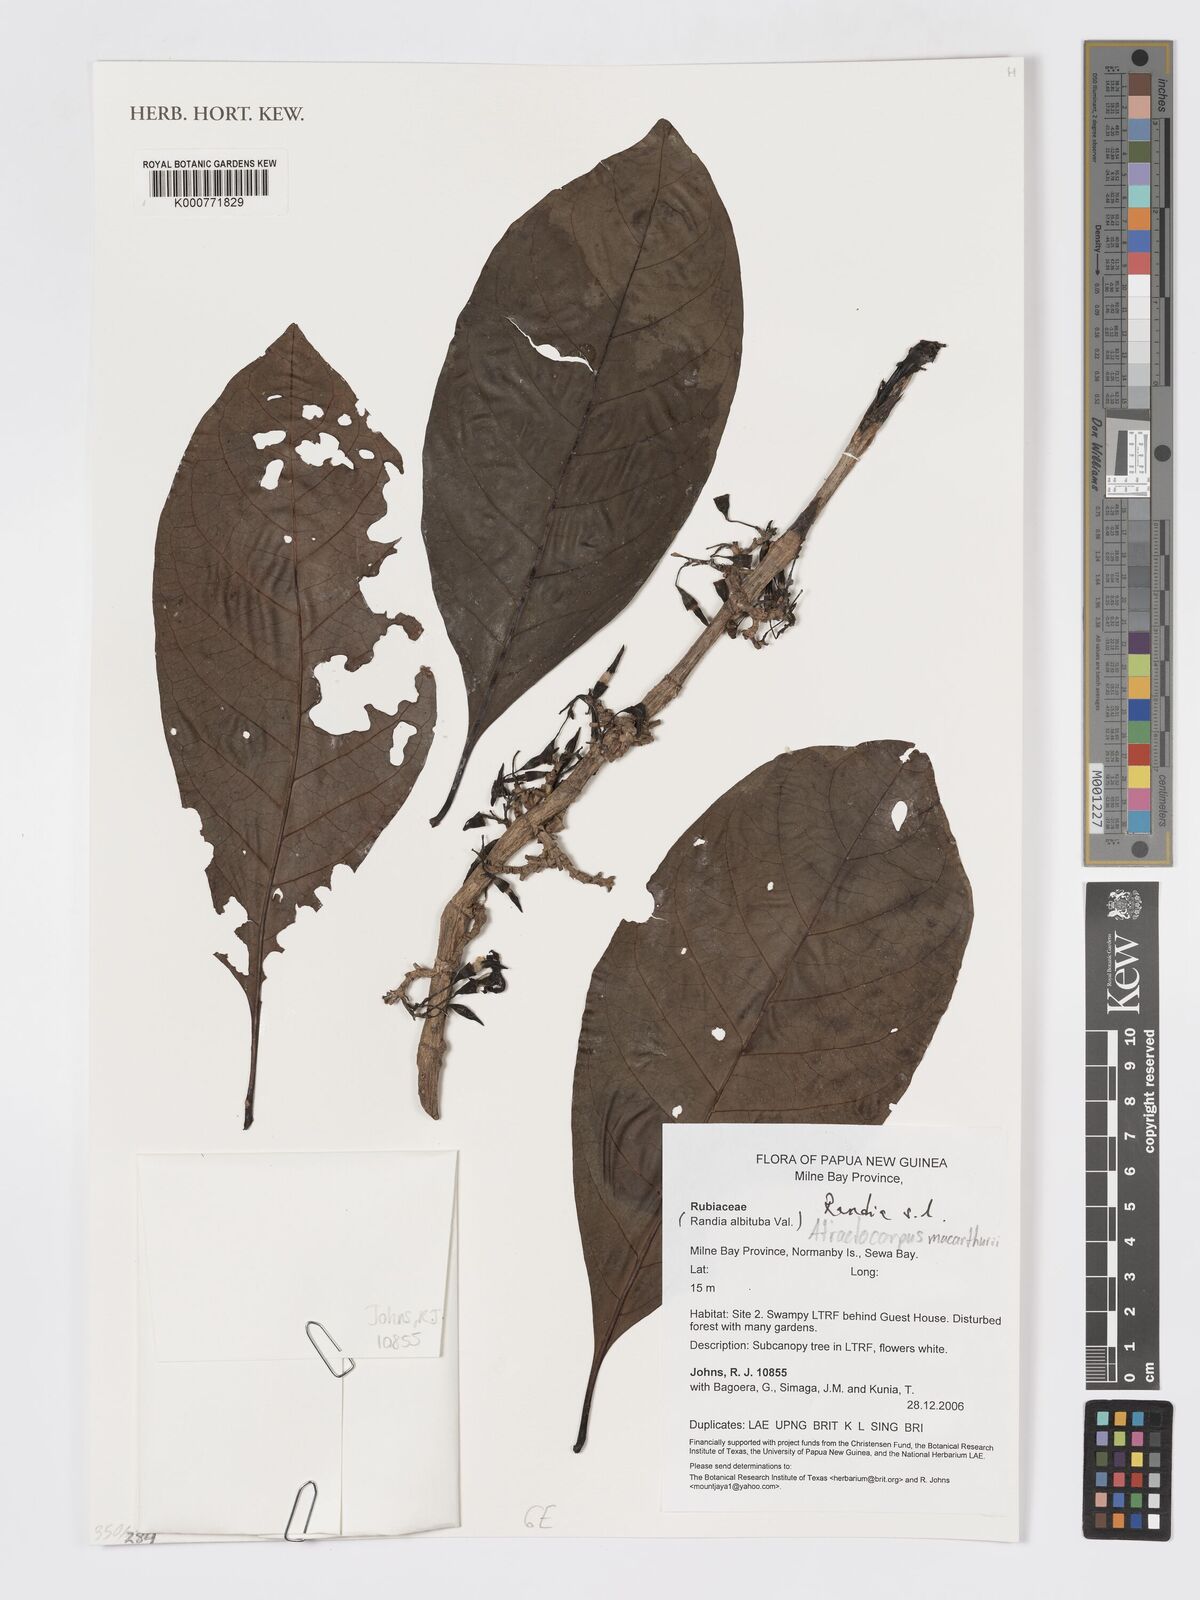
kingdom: Plantae
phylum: Tracheophyta
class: Magnoliopsida
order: Gentianales
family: Rubiaceae
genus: Randia
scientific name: Randia
